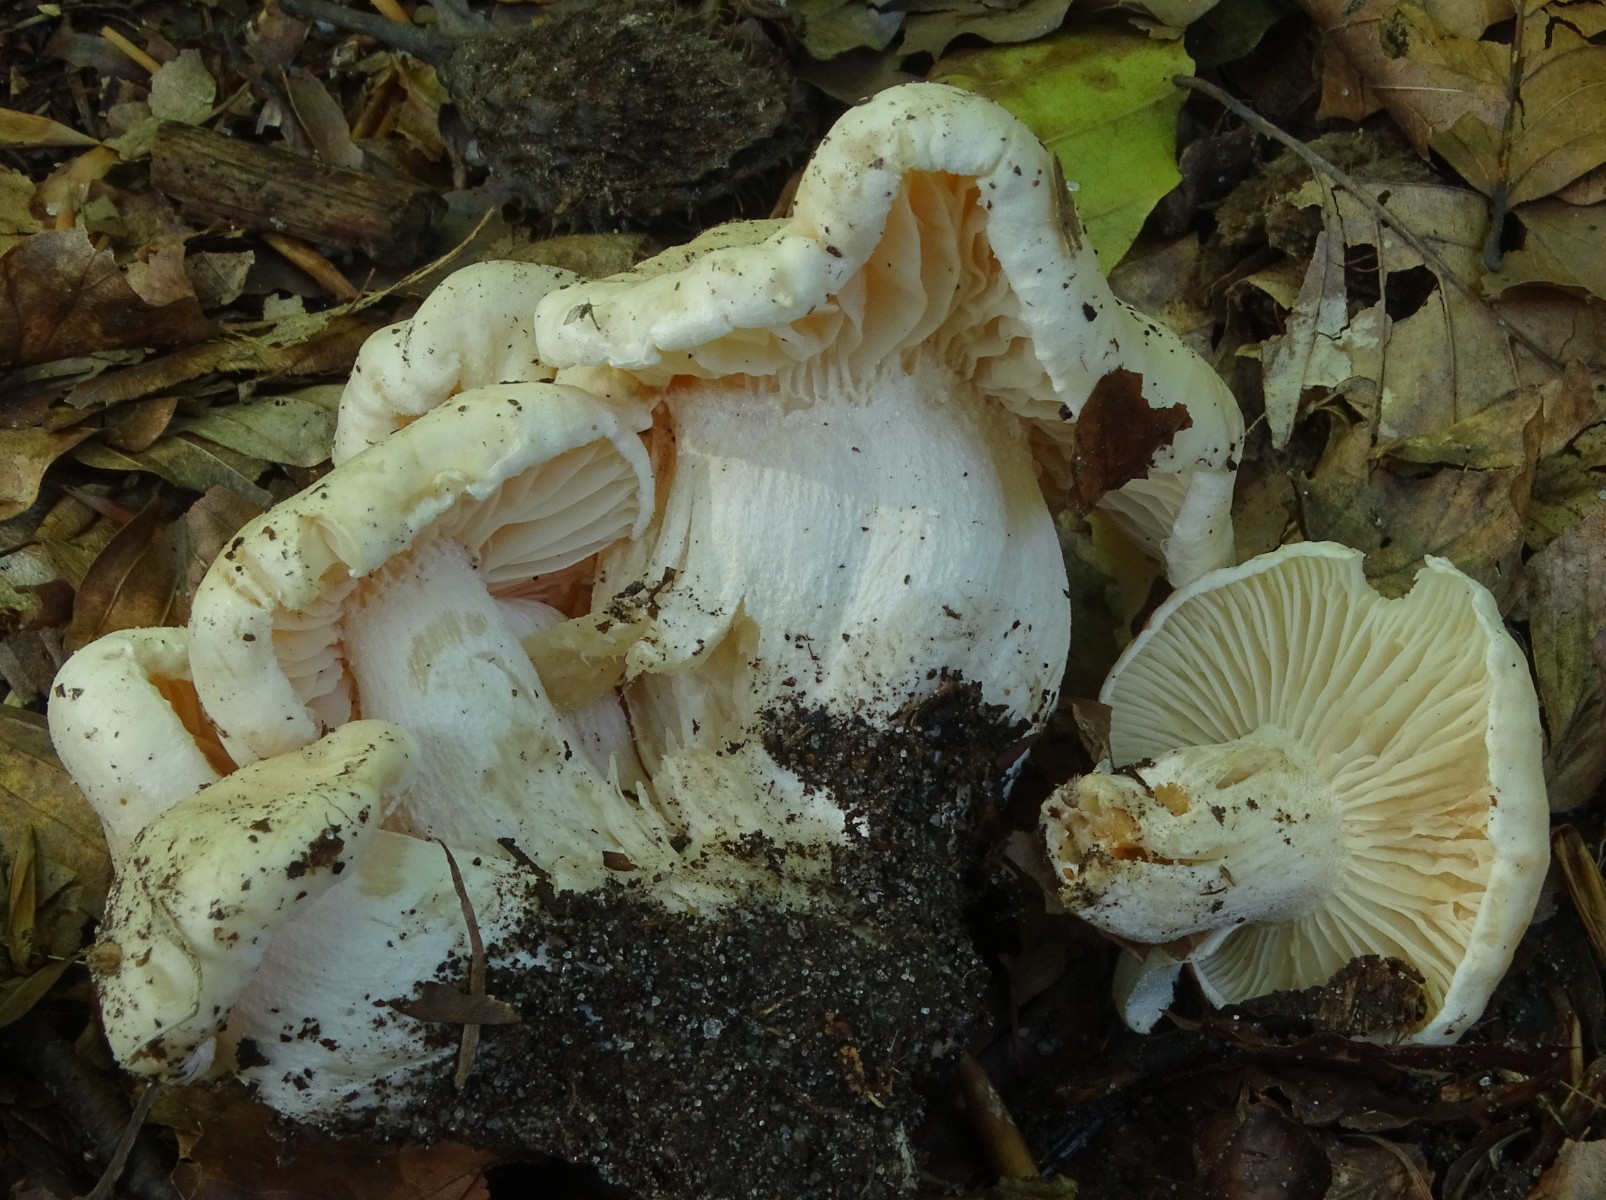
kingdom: Fungi
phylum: Basidiomycota
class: Agaricomycetes
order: Agaricales
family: Hygrophoraceae
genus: Hygrophorus
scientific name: Hygrophorus penarius
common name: spiselig sneglehat
